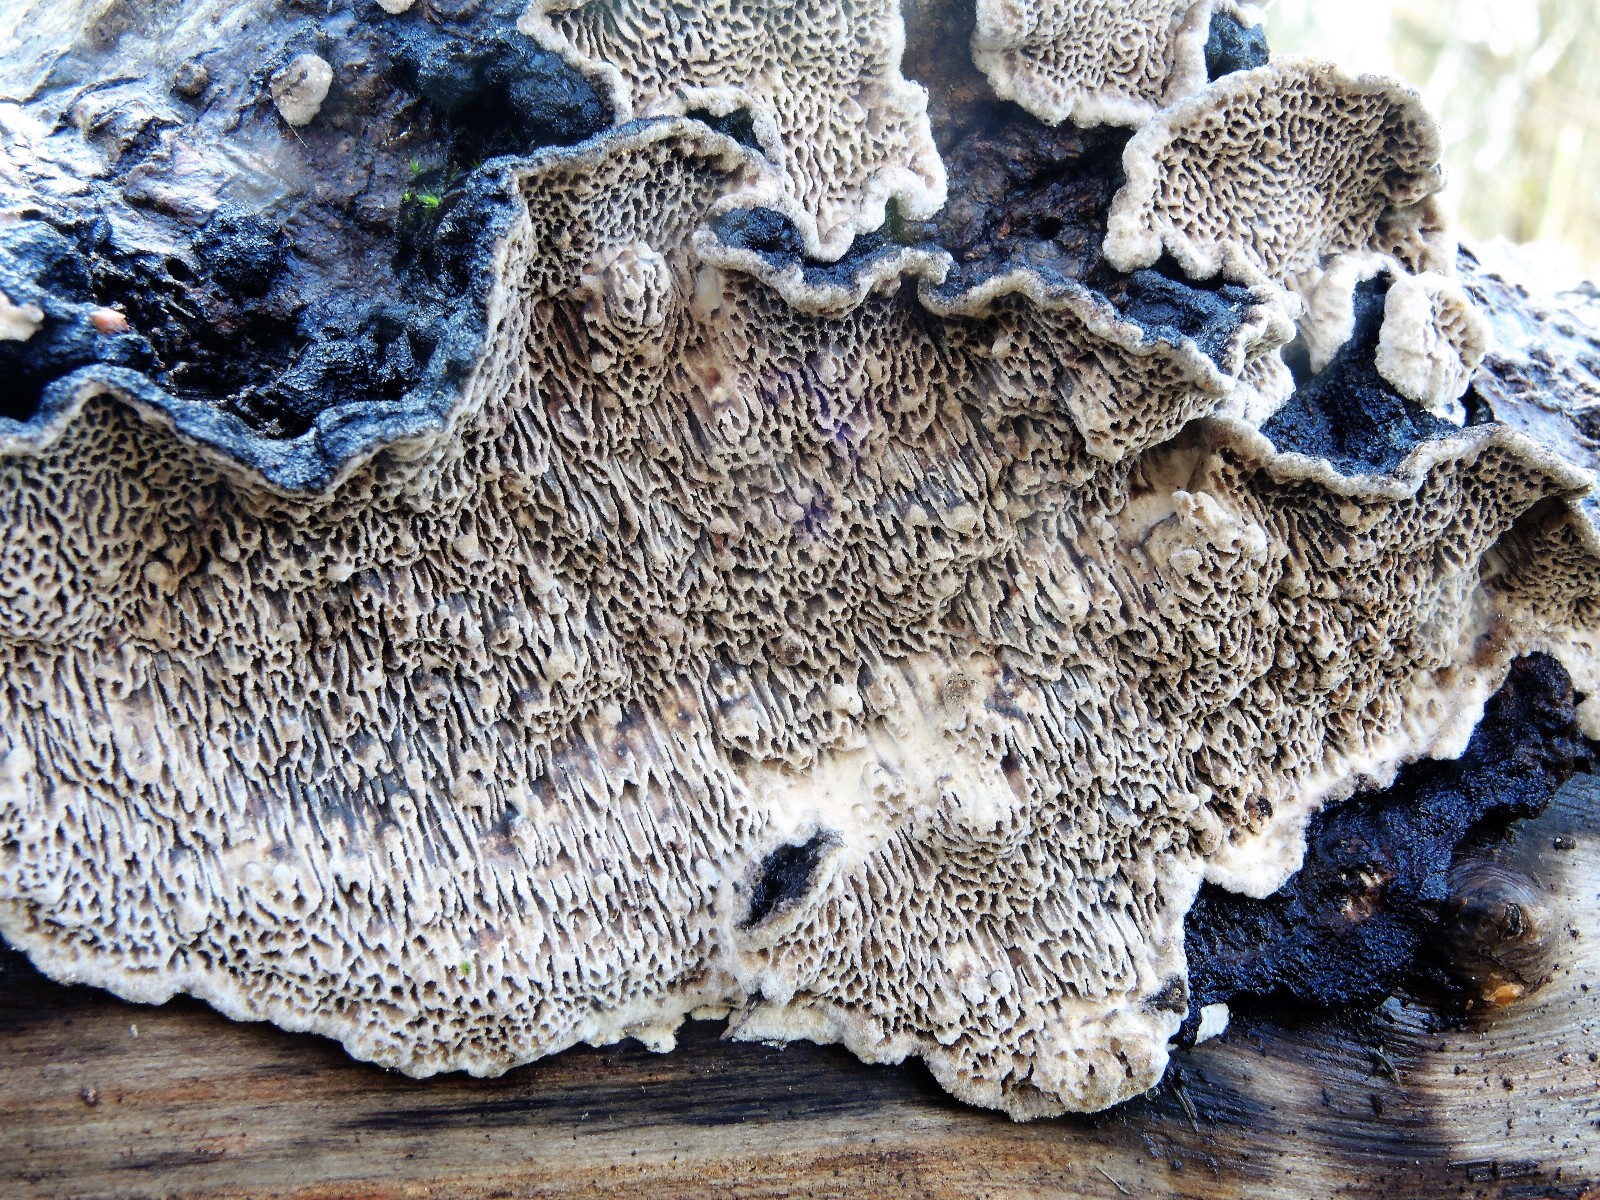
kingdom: Fungi
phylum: Basidiomycota
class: Agaricomycetes
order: Polyporales
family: Polyporaceae
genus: Podofomes
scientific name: Podofomes mollis
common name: blød begporesvamp
